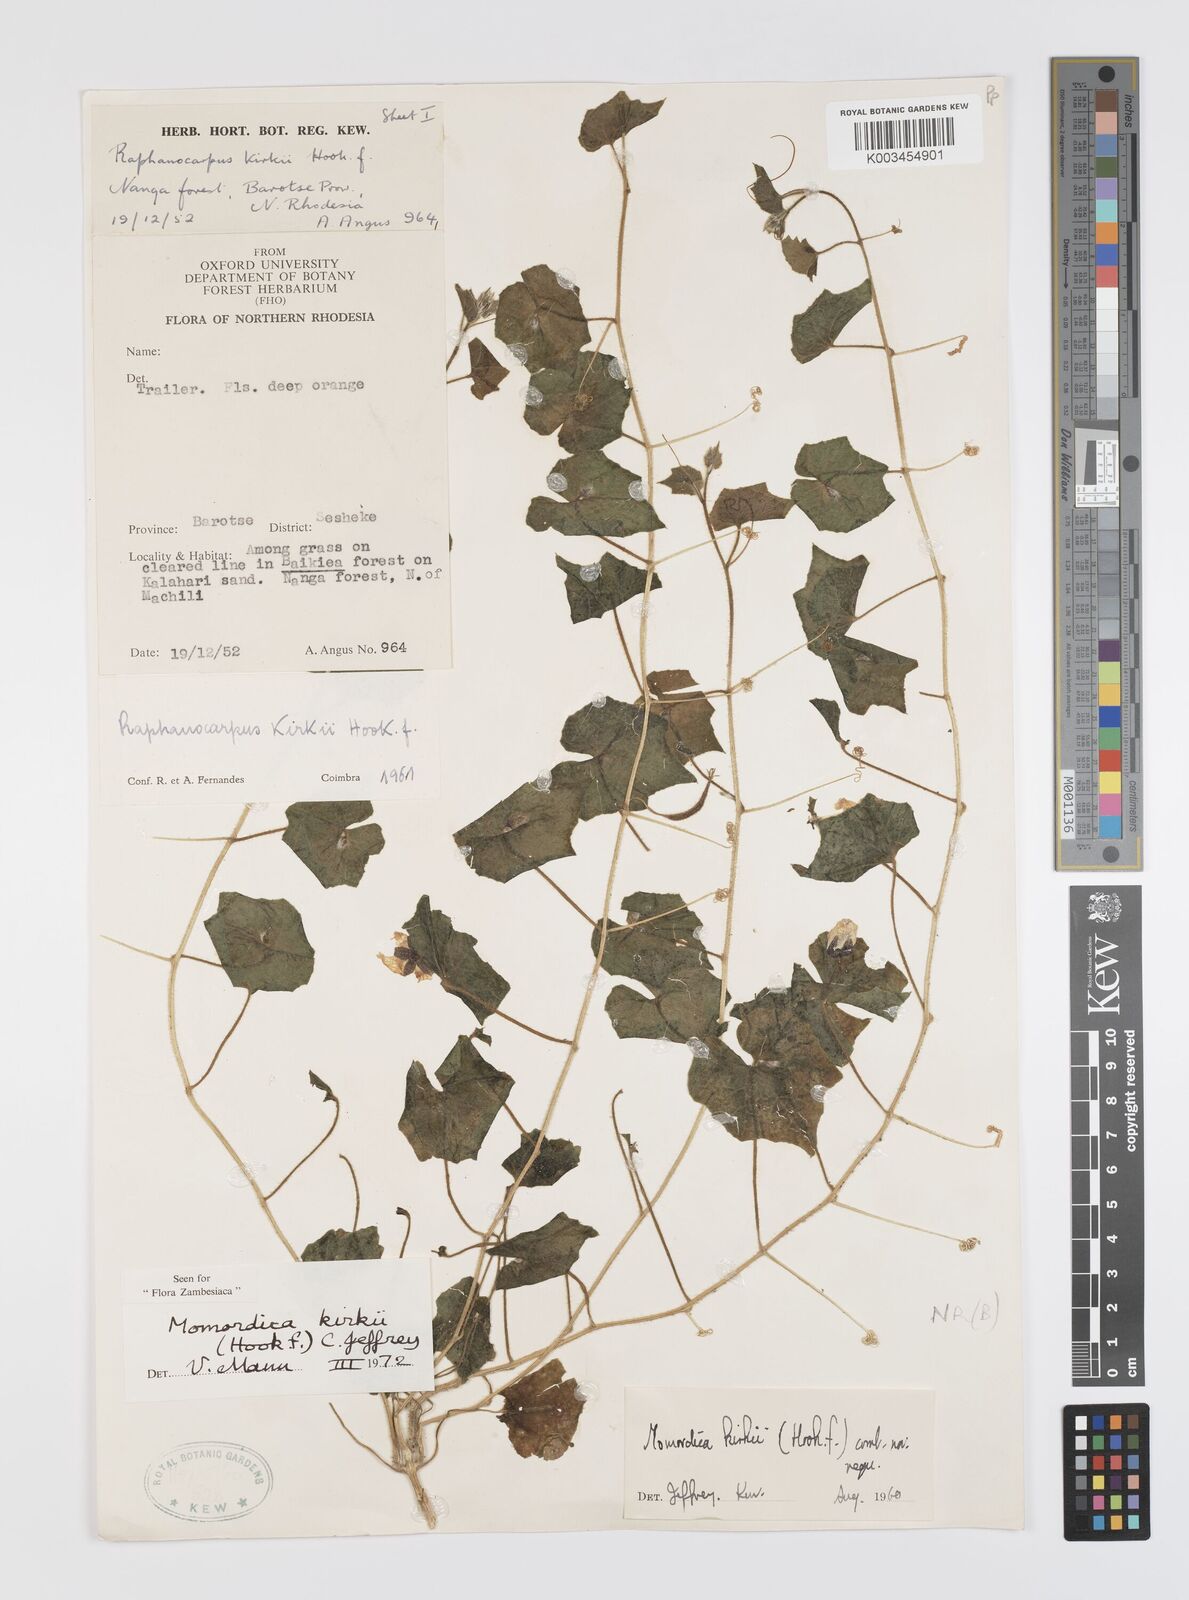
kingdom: Plantae
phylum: Tracheophyta
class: Magnoliopsida
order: Cucurbitales
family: Cucurbitaceae
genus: Momordica
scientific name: Momordica kirkii
